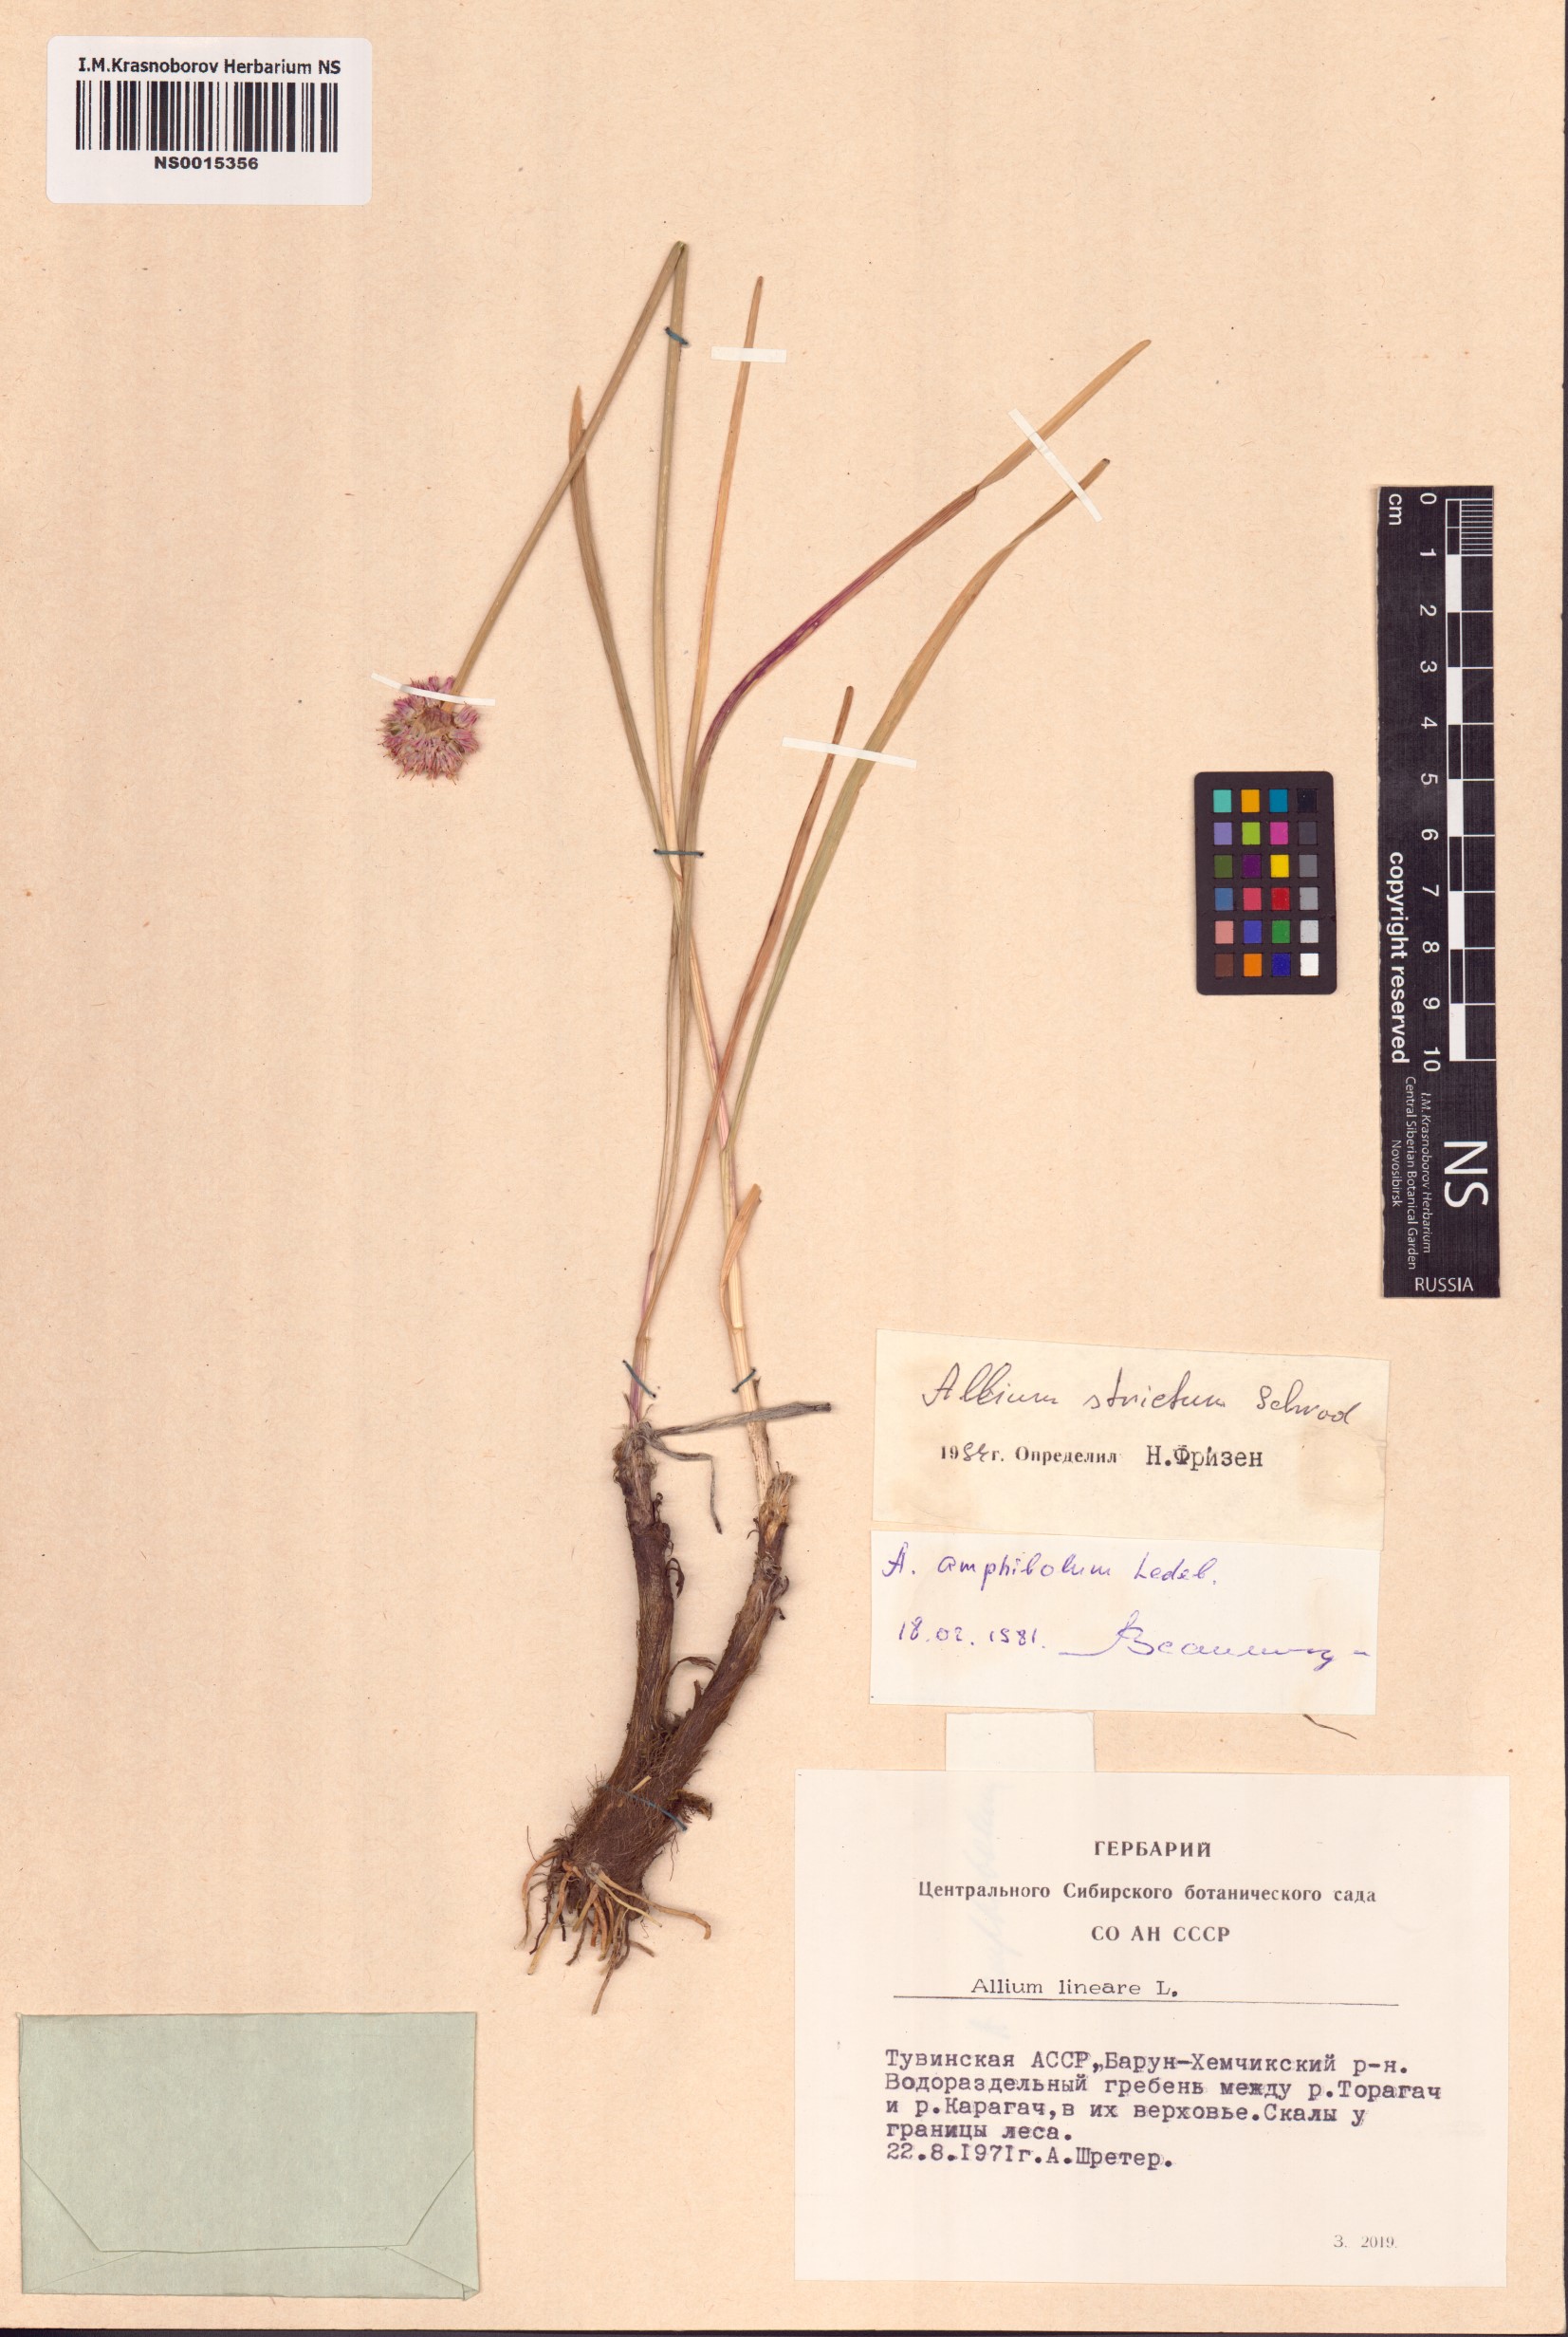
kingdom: Plantae
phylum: Tracheophyta
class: Liliopsida
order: Asparagales
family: Amaryllidaceae
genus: Allium
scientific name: Allium strictum
